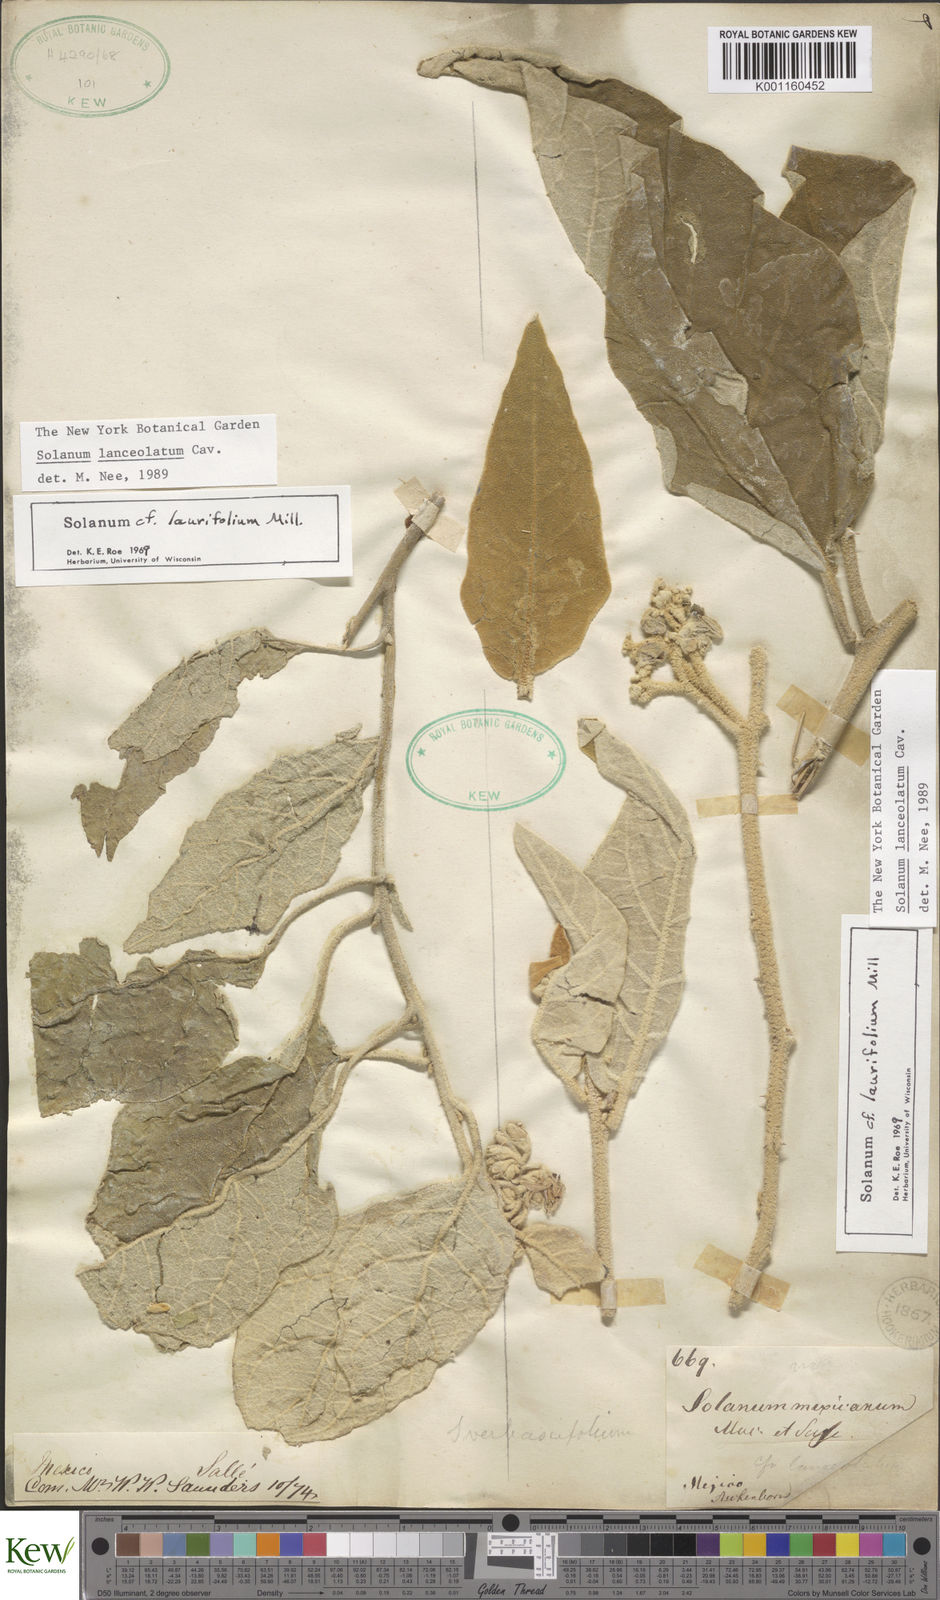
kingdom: Plantae
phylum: Tracheophyta
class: Magnoliopsida
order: Solanales
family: Solanaceae
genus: Solanum
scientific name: Solanum lanceolatum
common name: Orangeberry nightshade
